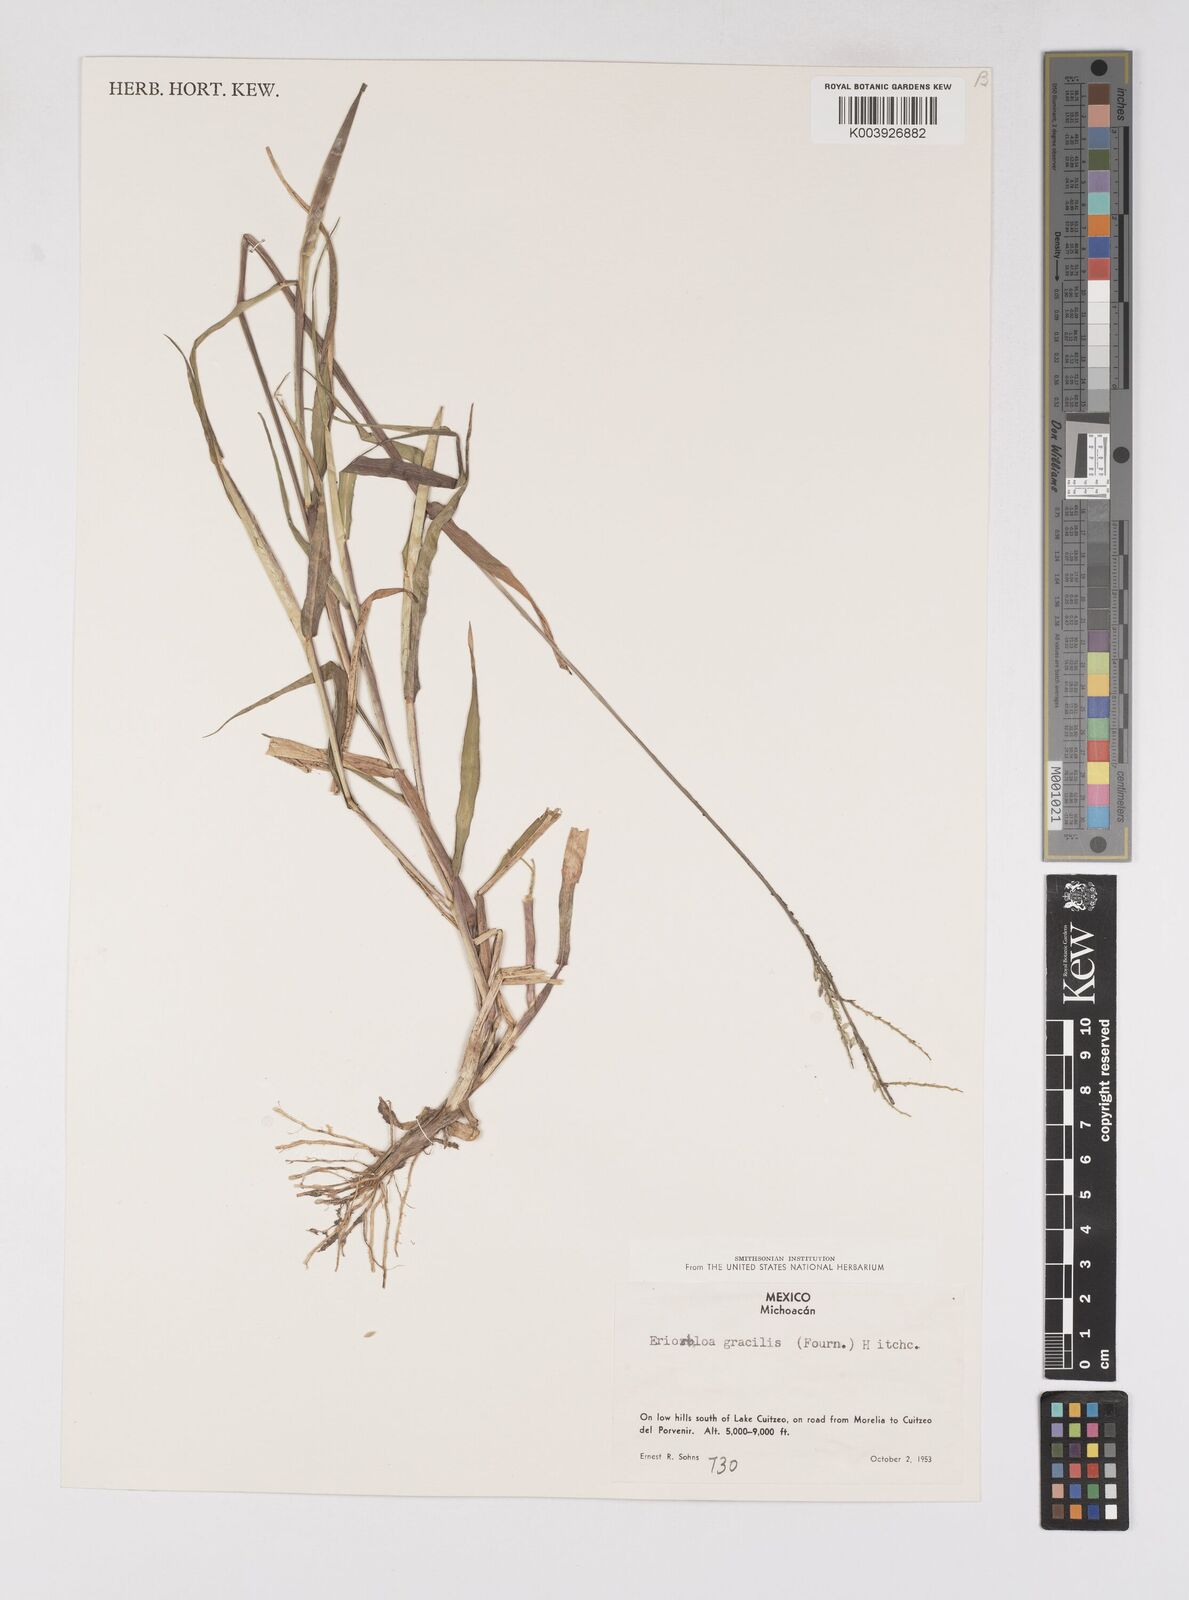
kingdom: Plantae
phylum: Tracheophyta
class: Liliopsida
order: Poales
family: Poaceae
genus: Eriochloa
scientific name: Eriochloa acuminata
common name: Southwestern cup grass
